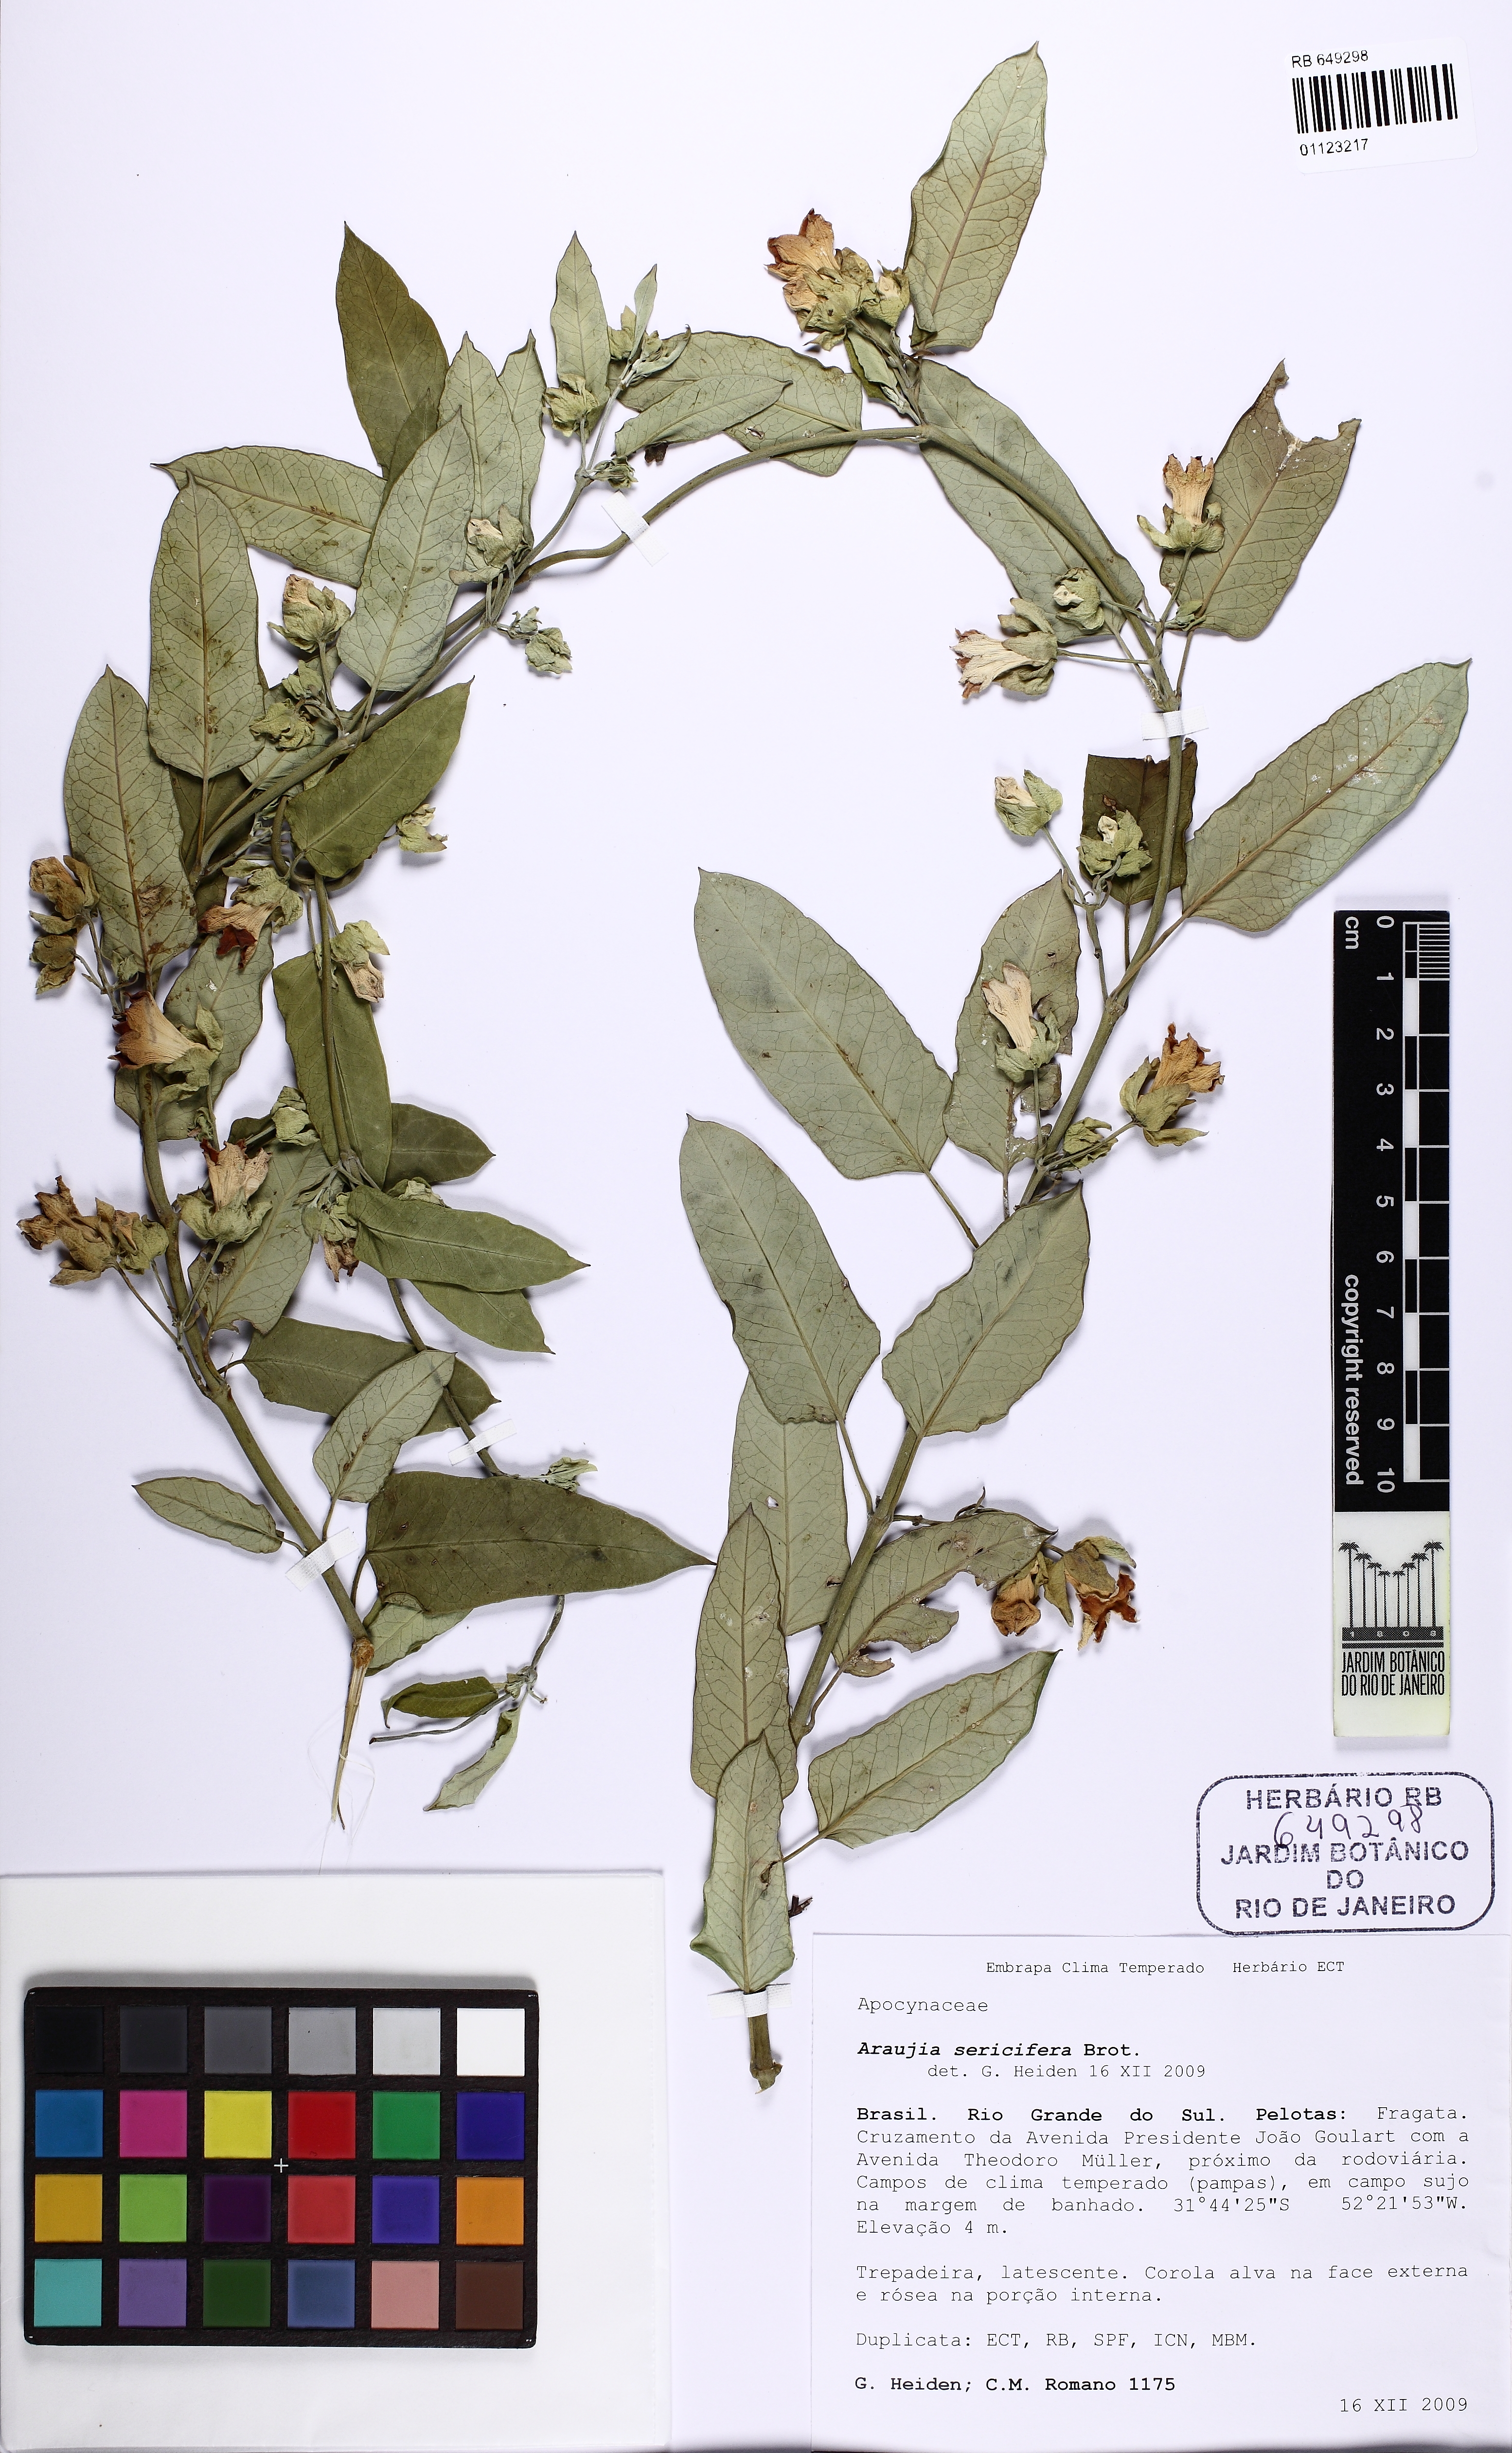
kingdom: Plantae
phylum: Tracheophyta
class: Magnoliopsida
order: Gentianales
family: Apocynaceae
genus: Araujia
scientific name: Araujia sericifera
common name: White bladderflower
